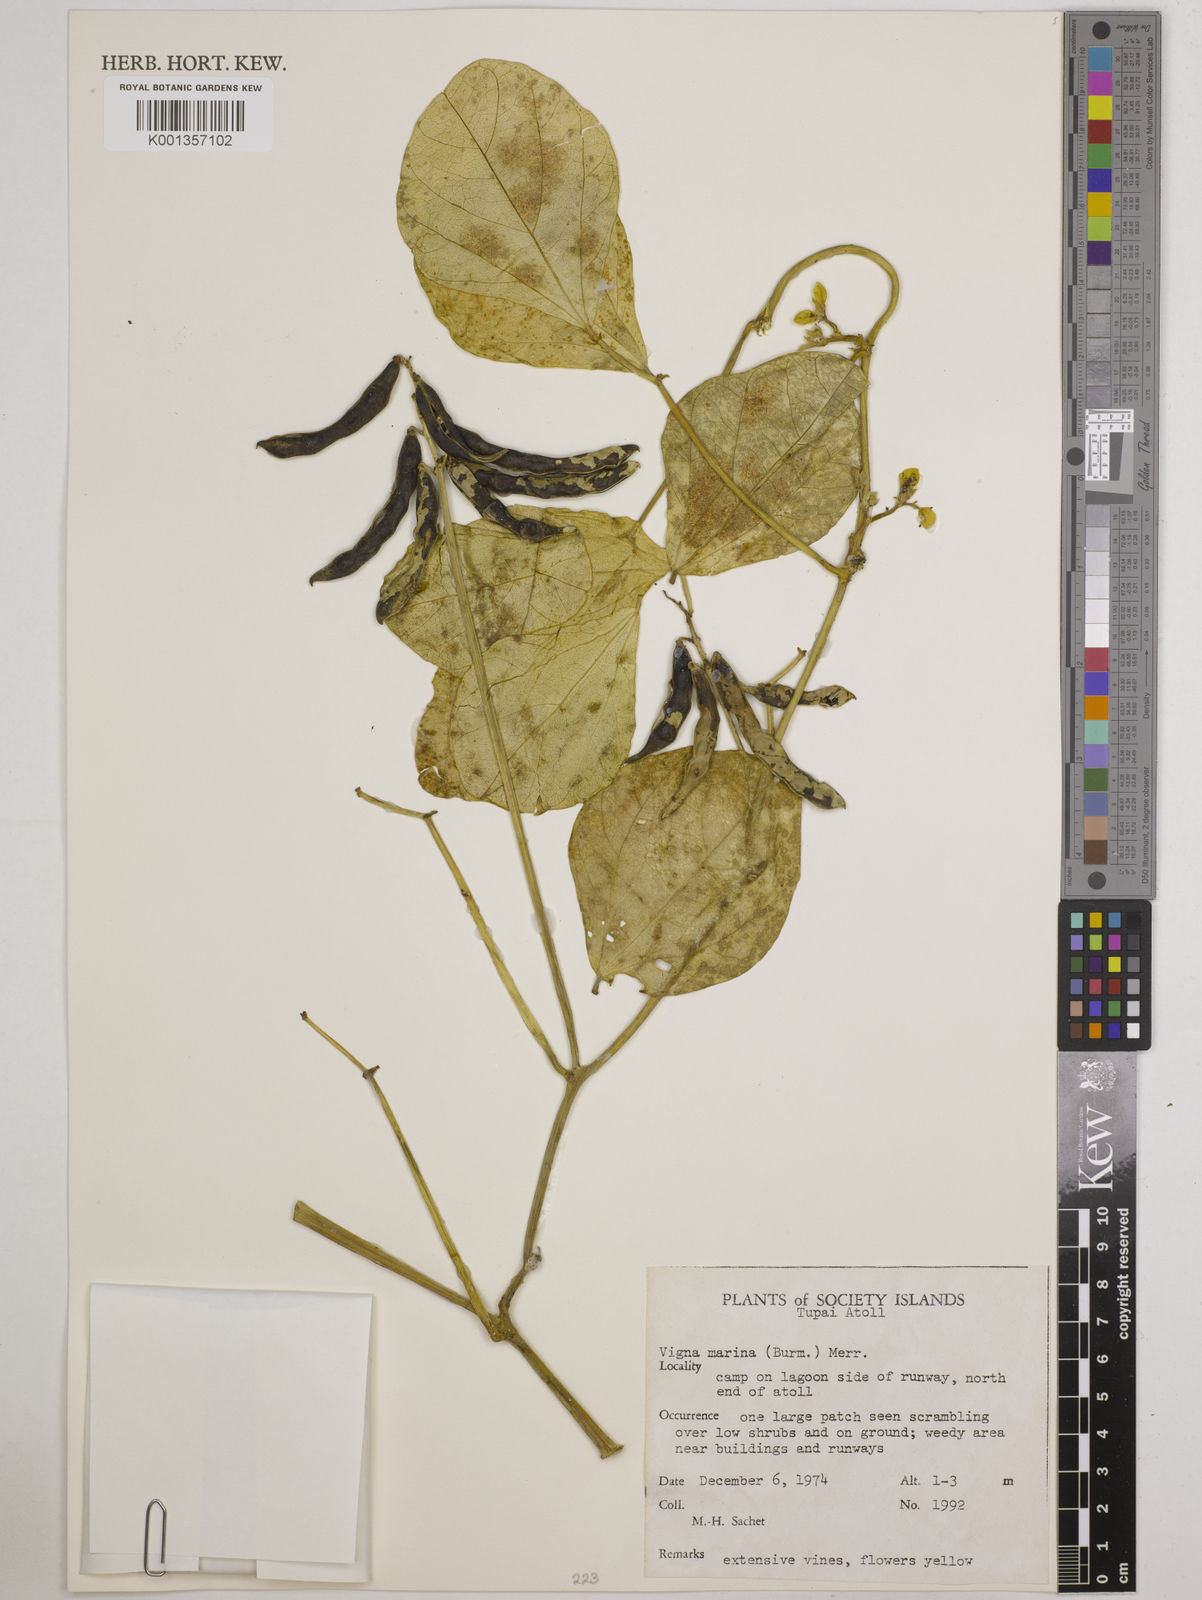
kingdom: Plantae
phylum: Tracheophyta
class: Magnoliopsida
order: Fabales
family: Fabaceae
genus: Vigna
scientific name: Vigna marina
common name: Dune-bean
